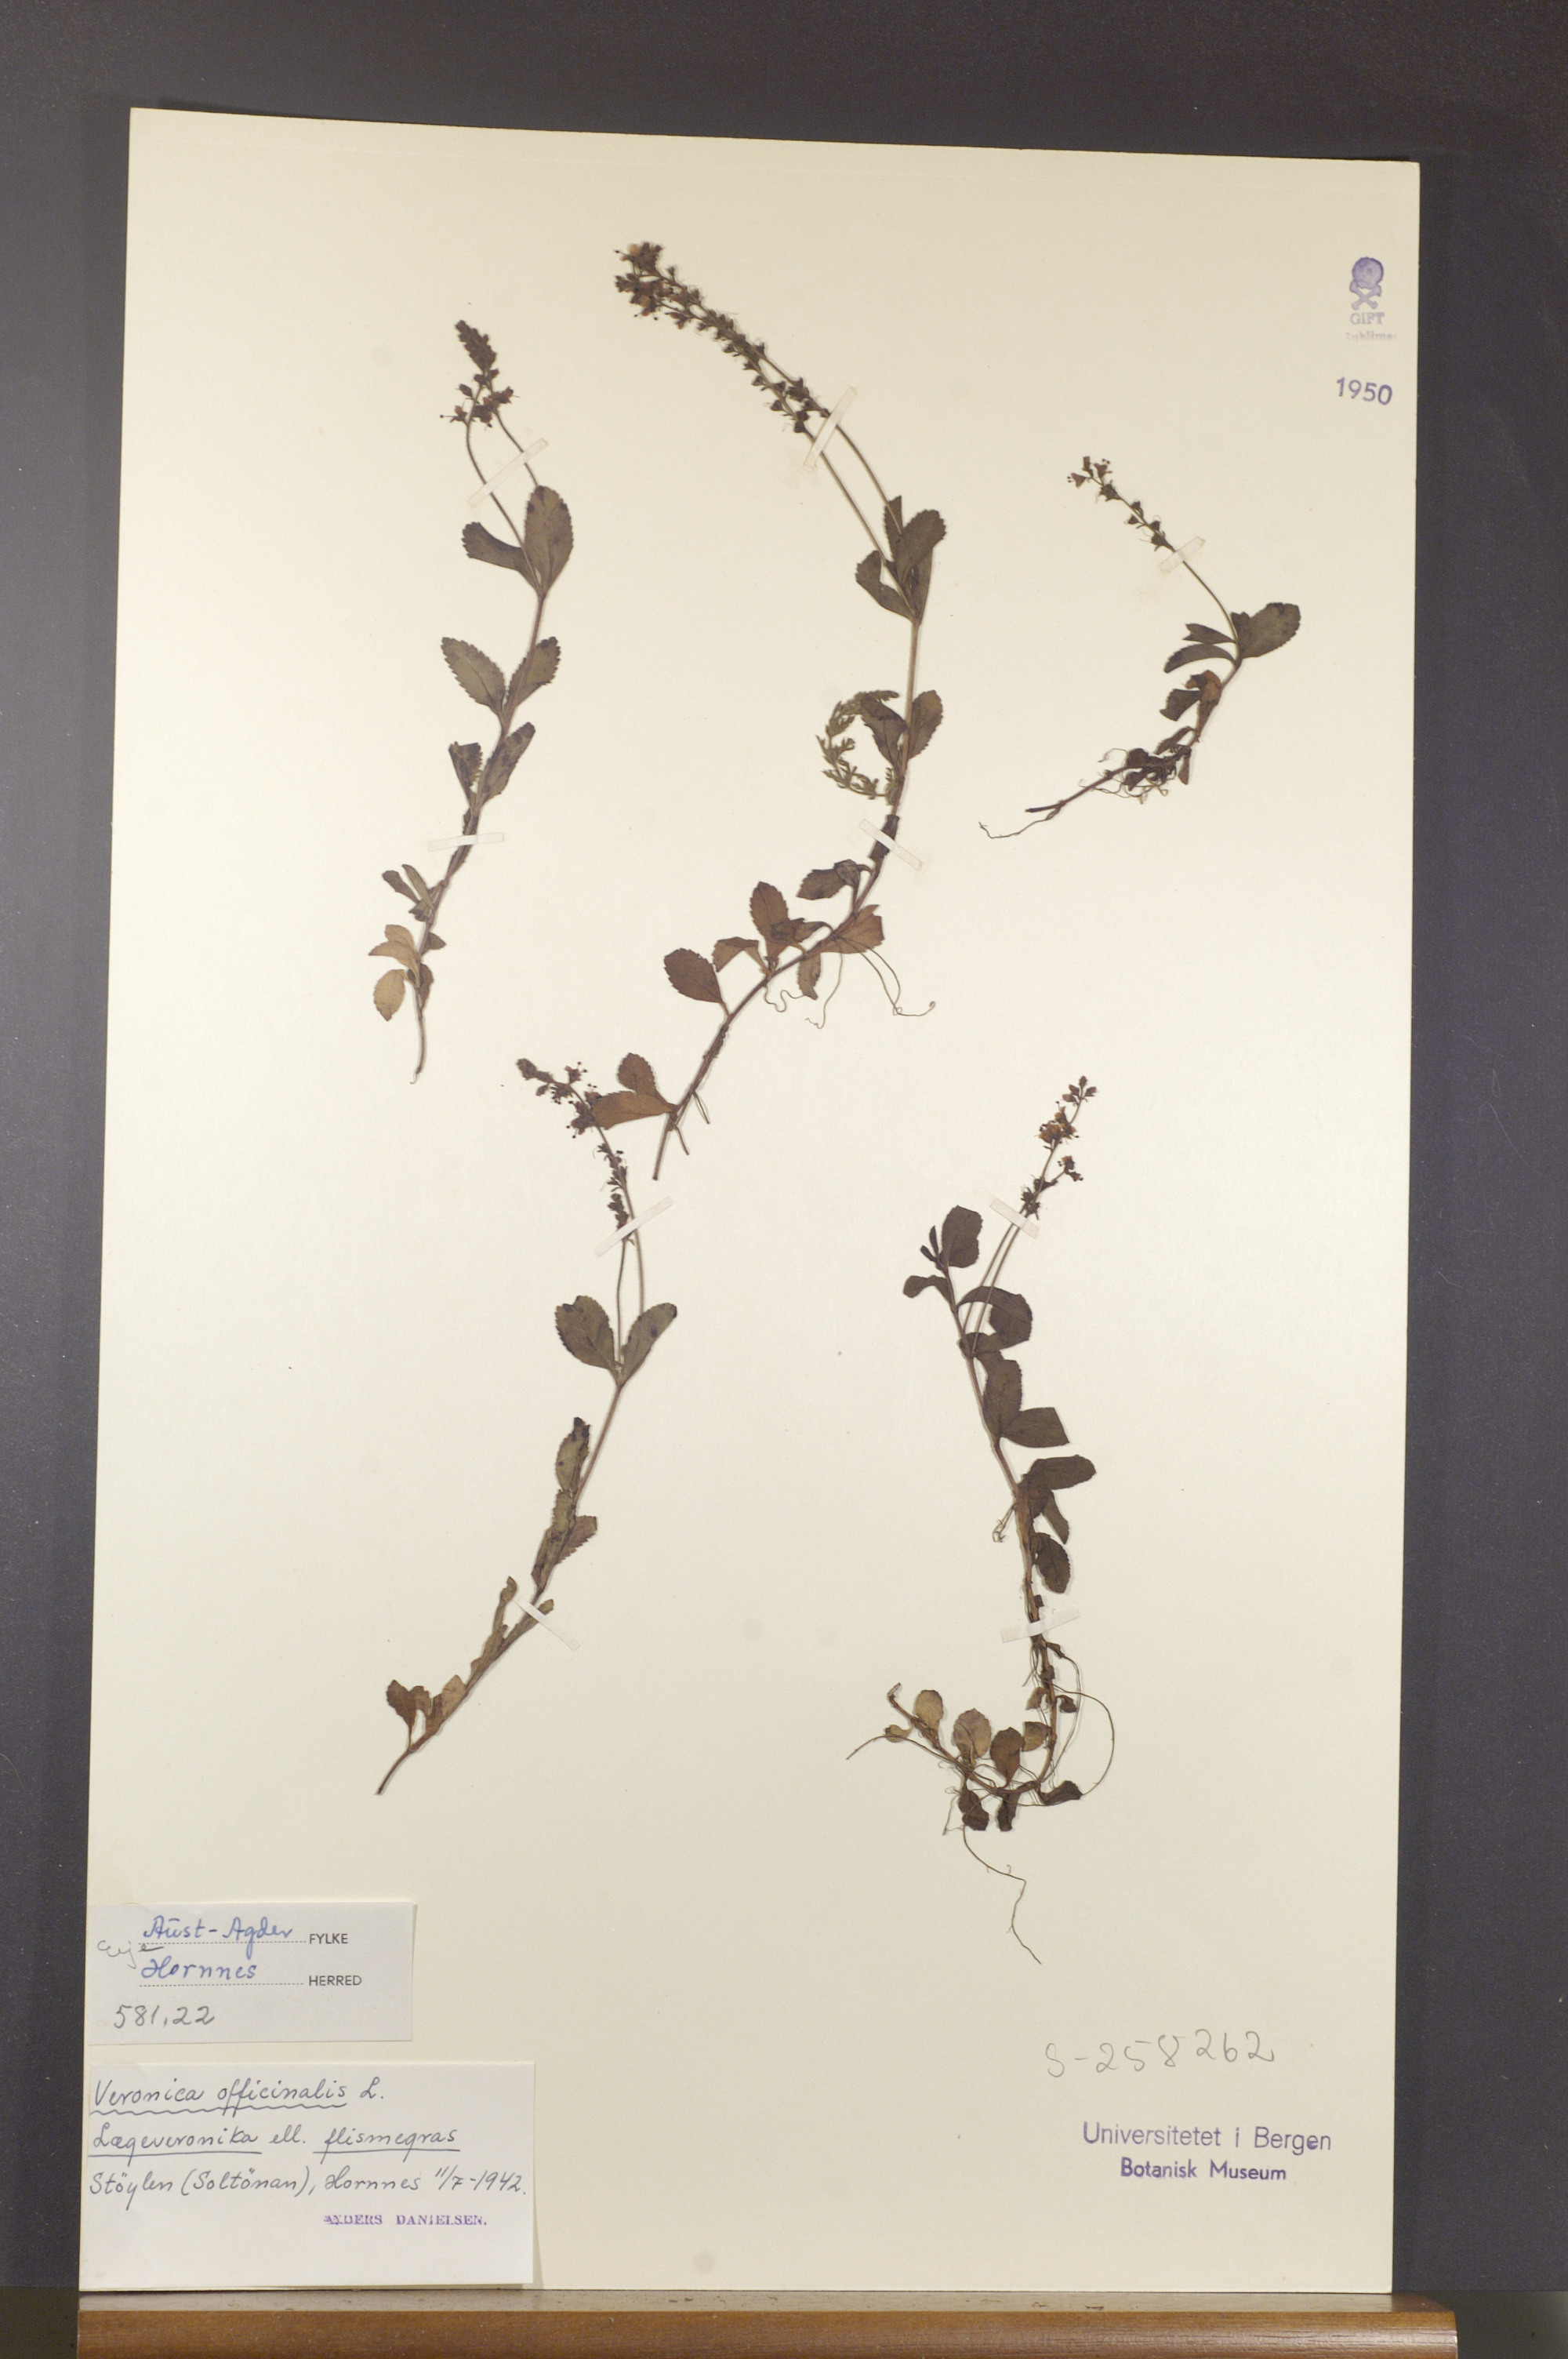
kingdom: Plantae
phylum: Tracheophyta
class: Magnoliopsida
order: Lamiales
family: Plantaginaceae
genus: Veronica
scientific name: Veronica officinalis
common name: Common speedwell
